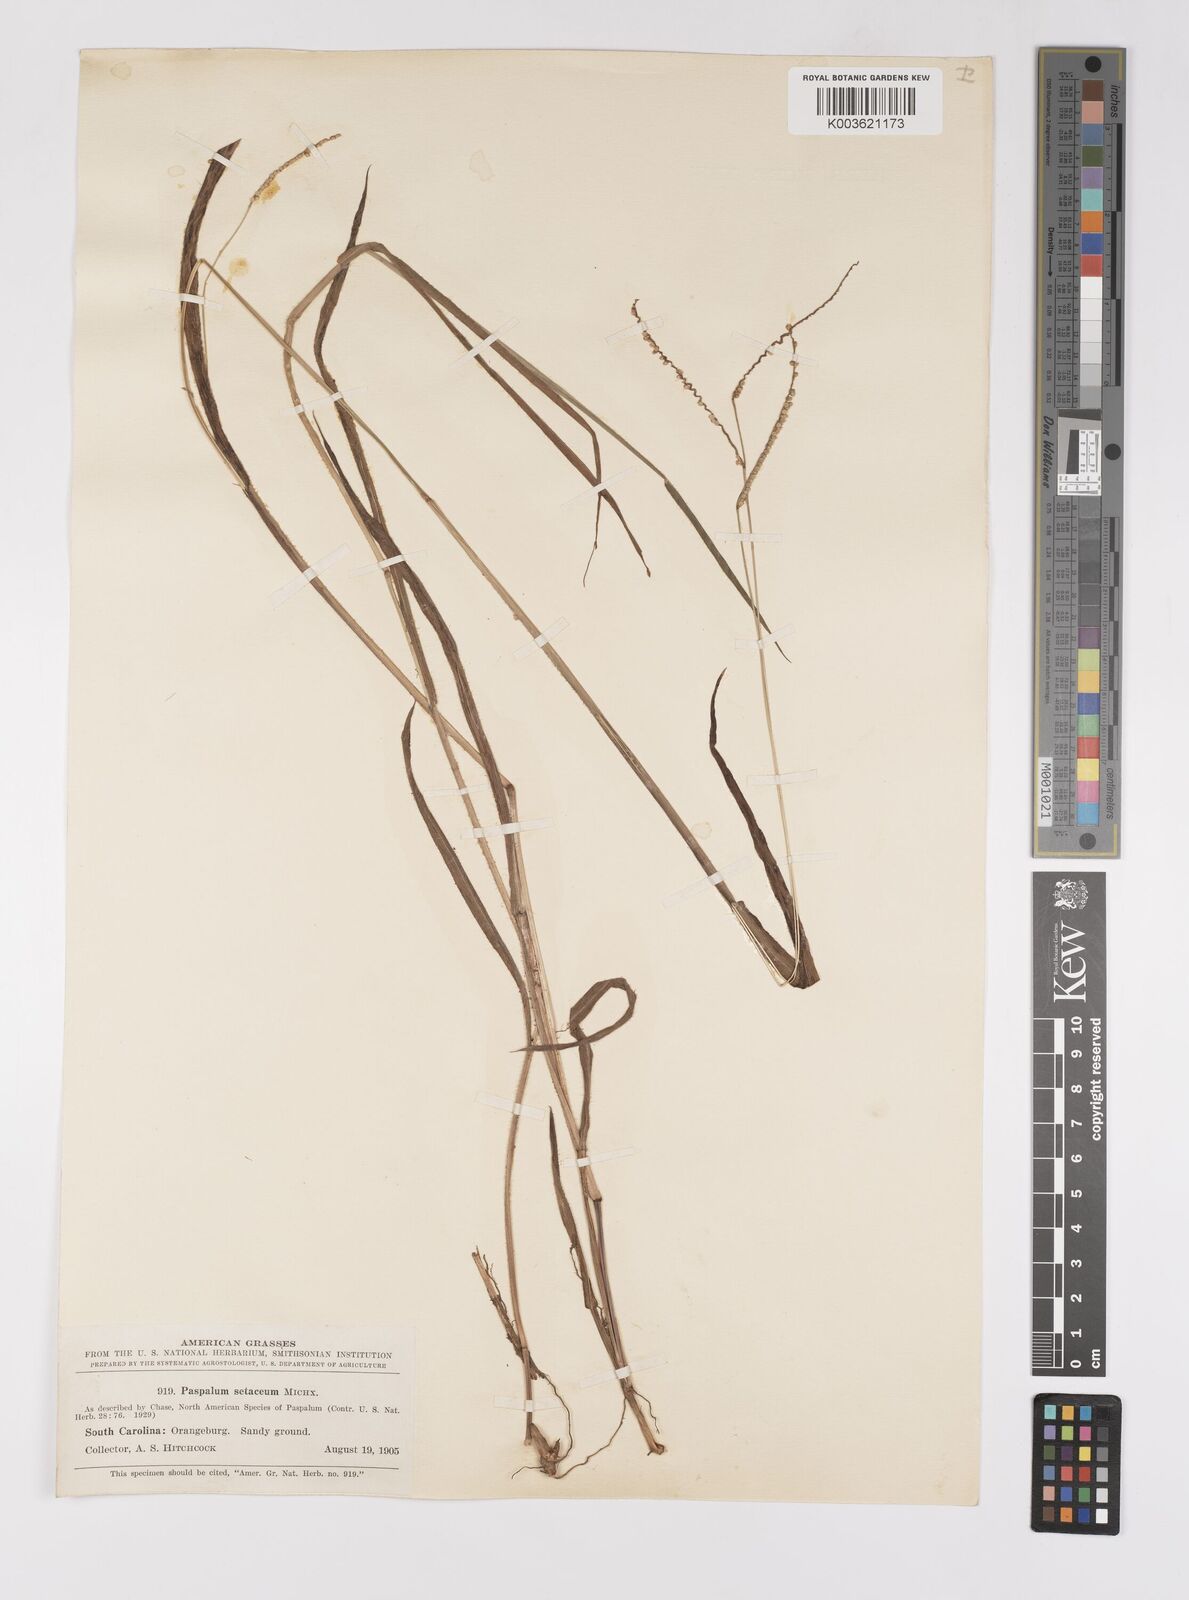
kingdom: Plantae
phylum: Tracheophyta
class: Liliopsida
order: Poales
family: Poaceae
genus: Paspalum
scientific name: Paspalum setaceum
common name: Slender paspalum
